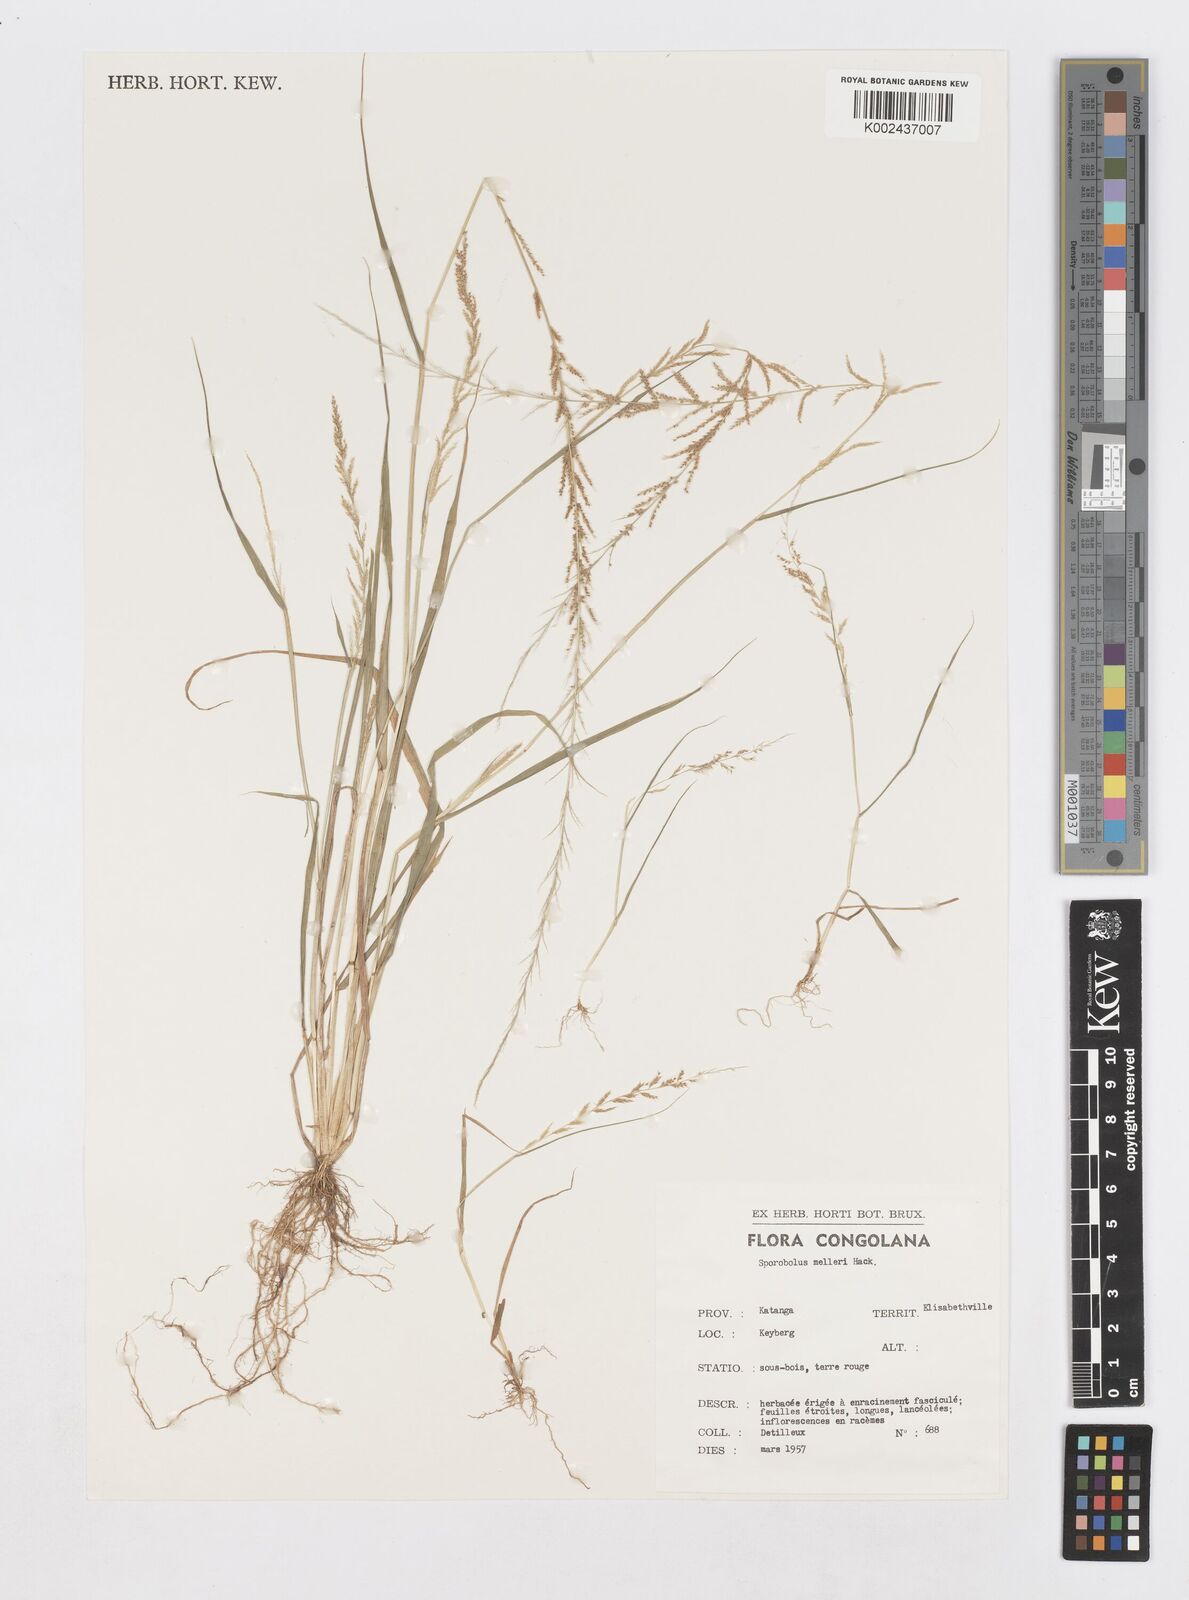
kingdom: Plantae
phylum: Tracheophyta
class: Liliopsida
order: Poales
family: Poaceae
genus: Sporobolus
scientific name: Sporobolus molleri
